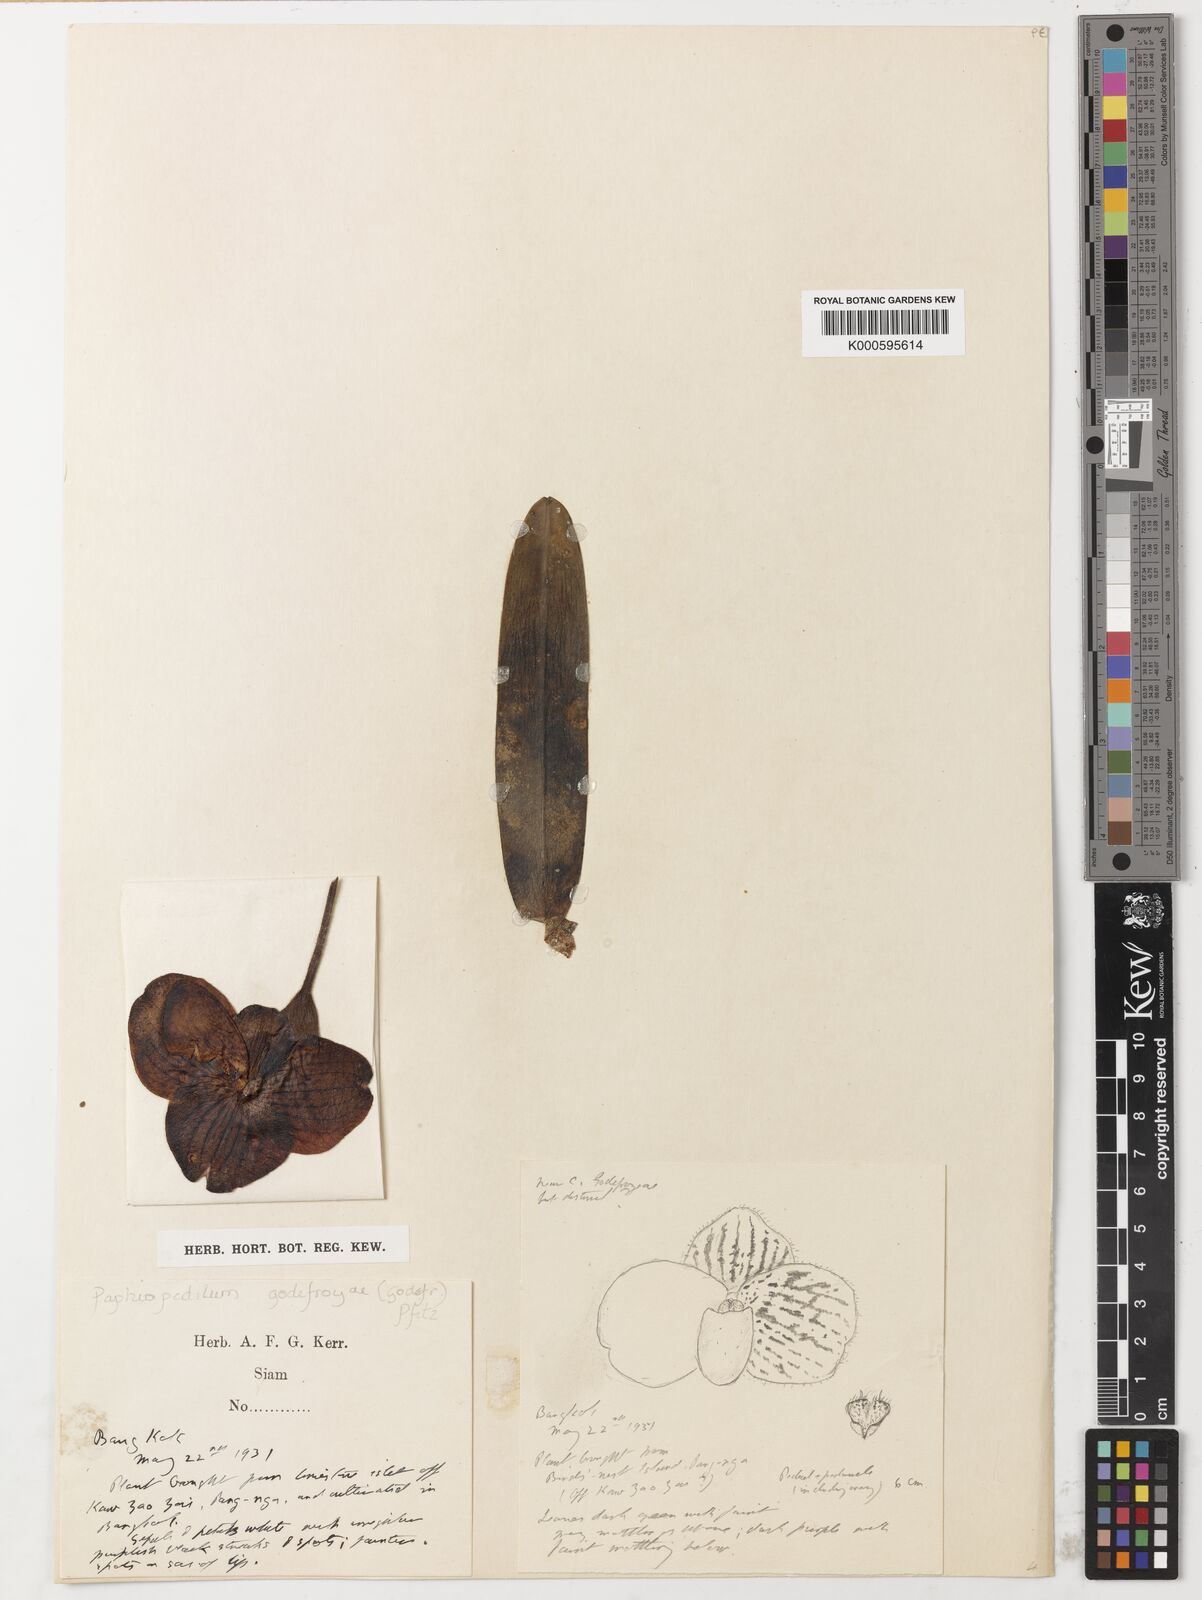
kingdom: Plantae
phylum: Tracheophyta
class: Liliopsida
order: Asparagales
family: Orchidaceae
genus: Paphiopedilum
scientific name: Paphiopedilum
